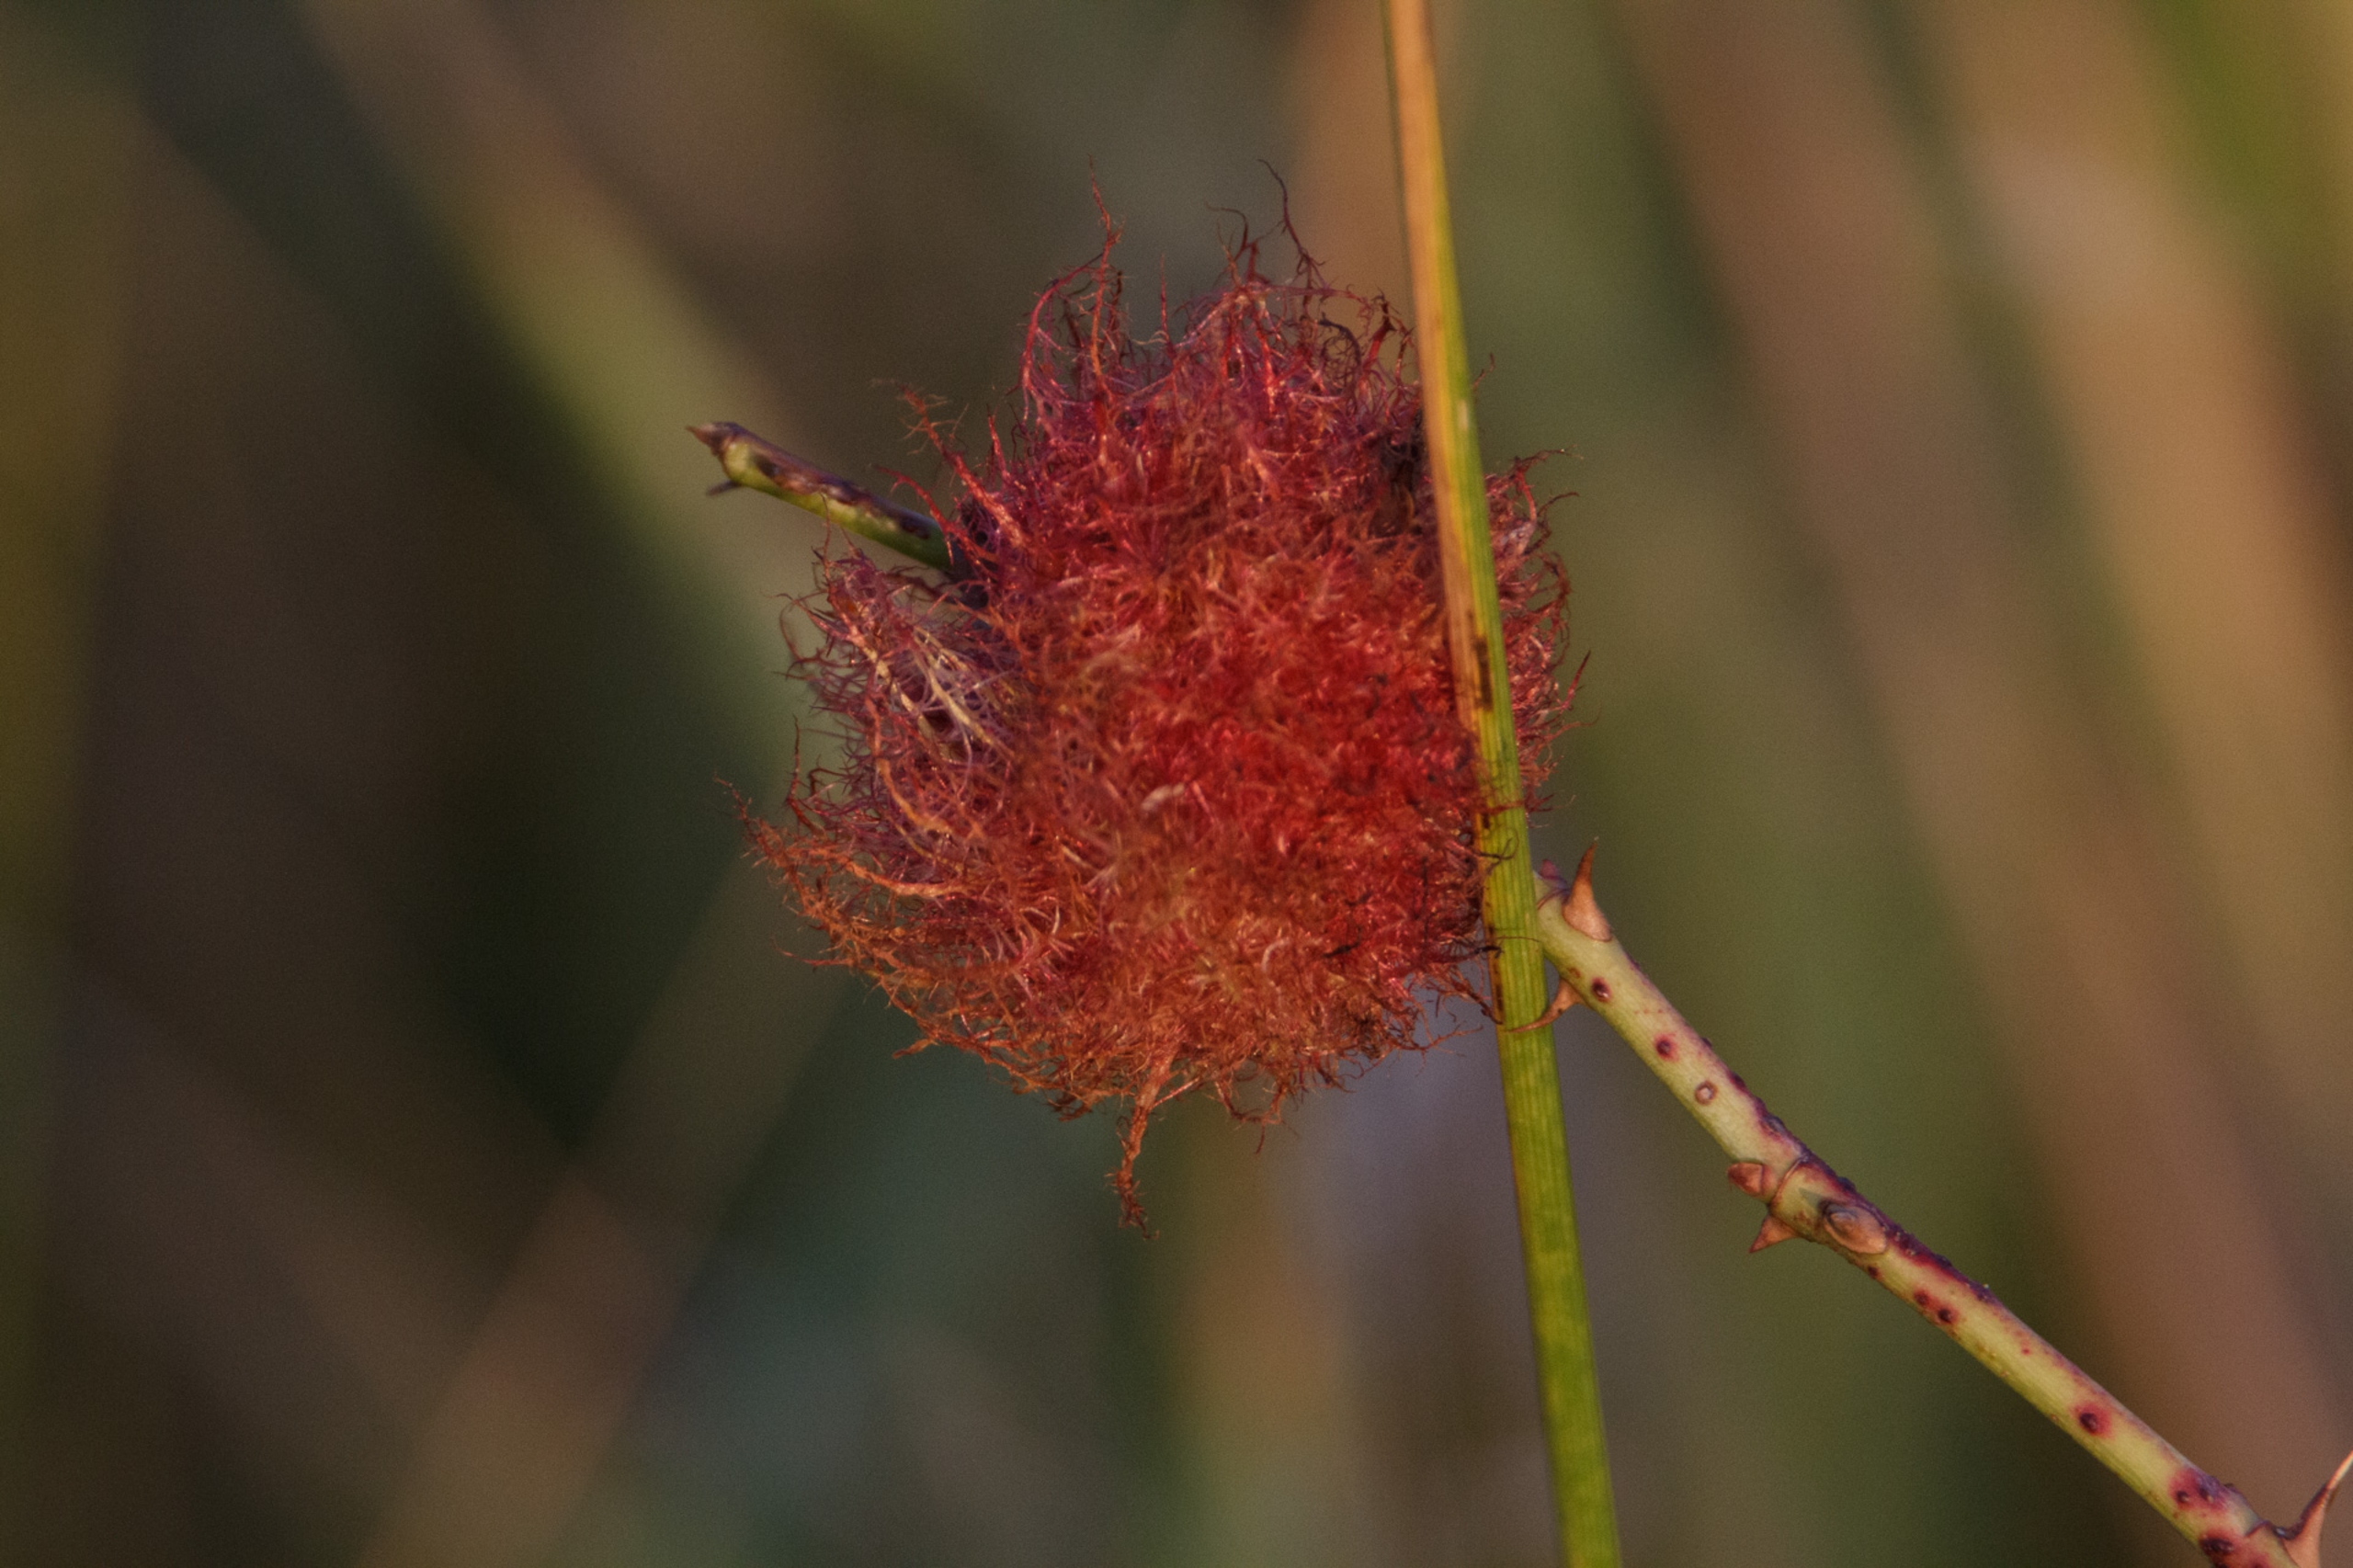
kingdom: Animalia
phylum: Arthropoda
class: Insecta
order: Hymenoptera
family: Cynipidae
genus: Diplolepis
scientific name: Diplolepis rosae
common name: Bedeguargalhveps
